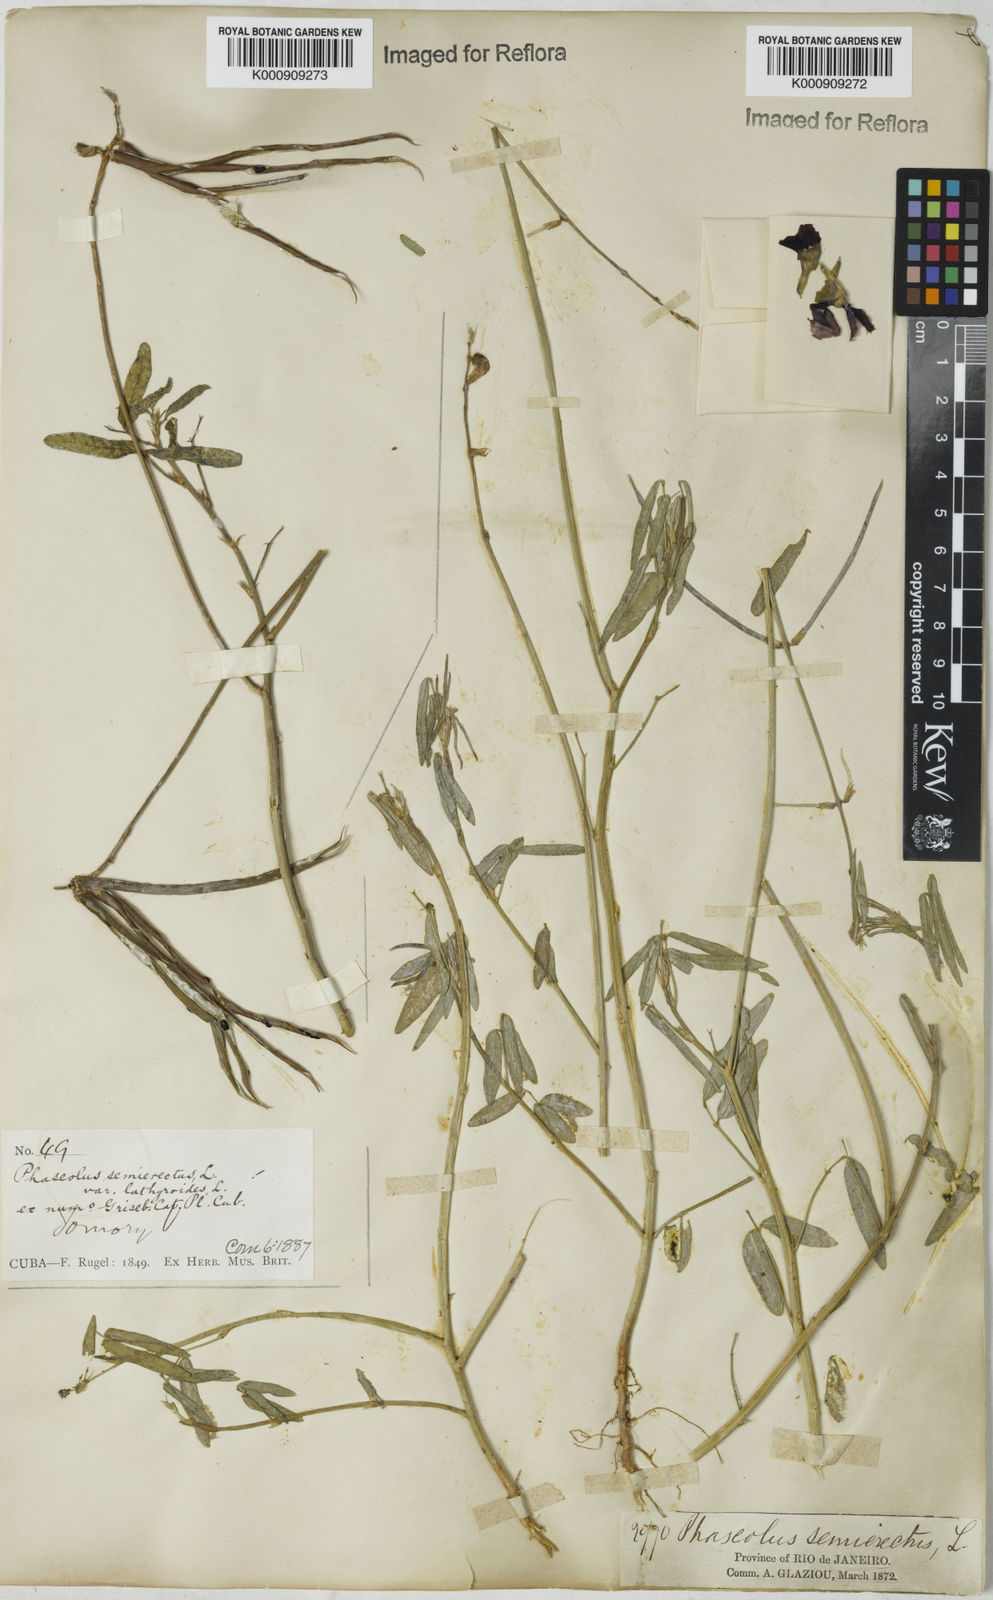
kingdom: Plantae
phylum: Tracheophyta
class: Magnoliopsida
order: Fabales
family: Fabaceae
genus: Macroptilium
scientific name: Macroptilium lathyroides
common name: Wild bushbean
